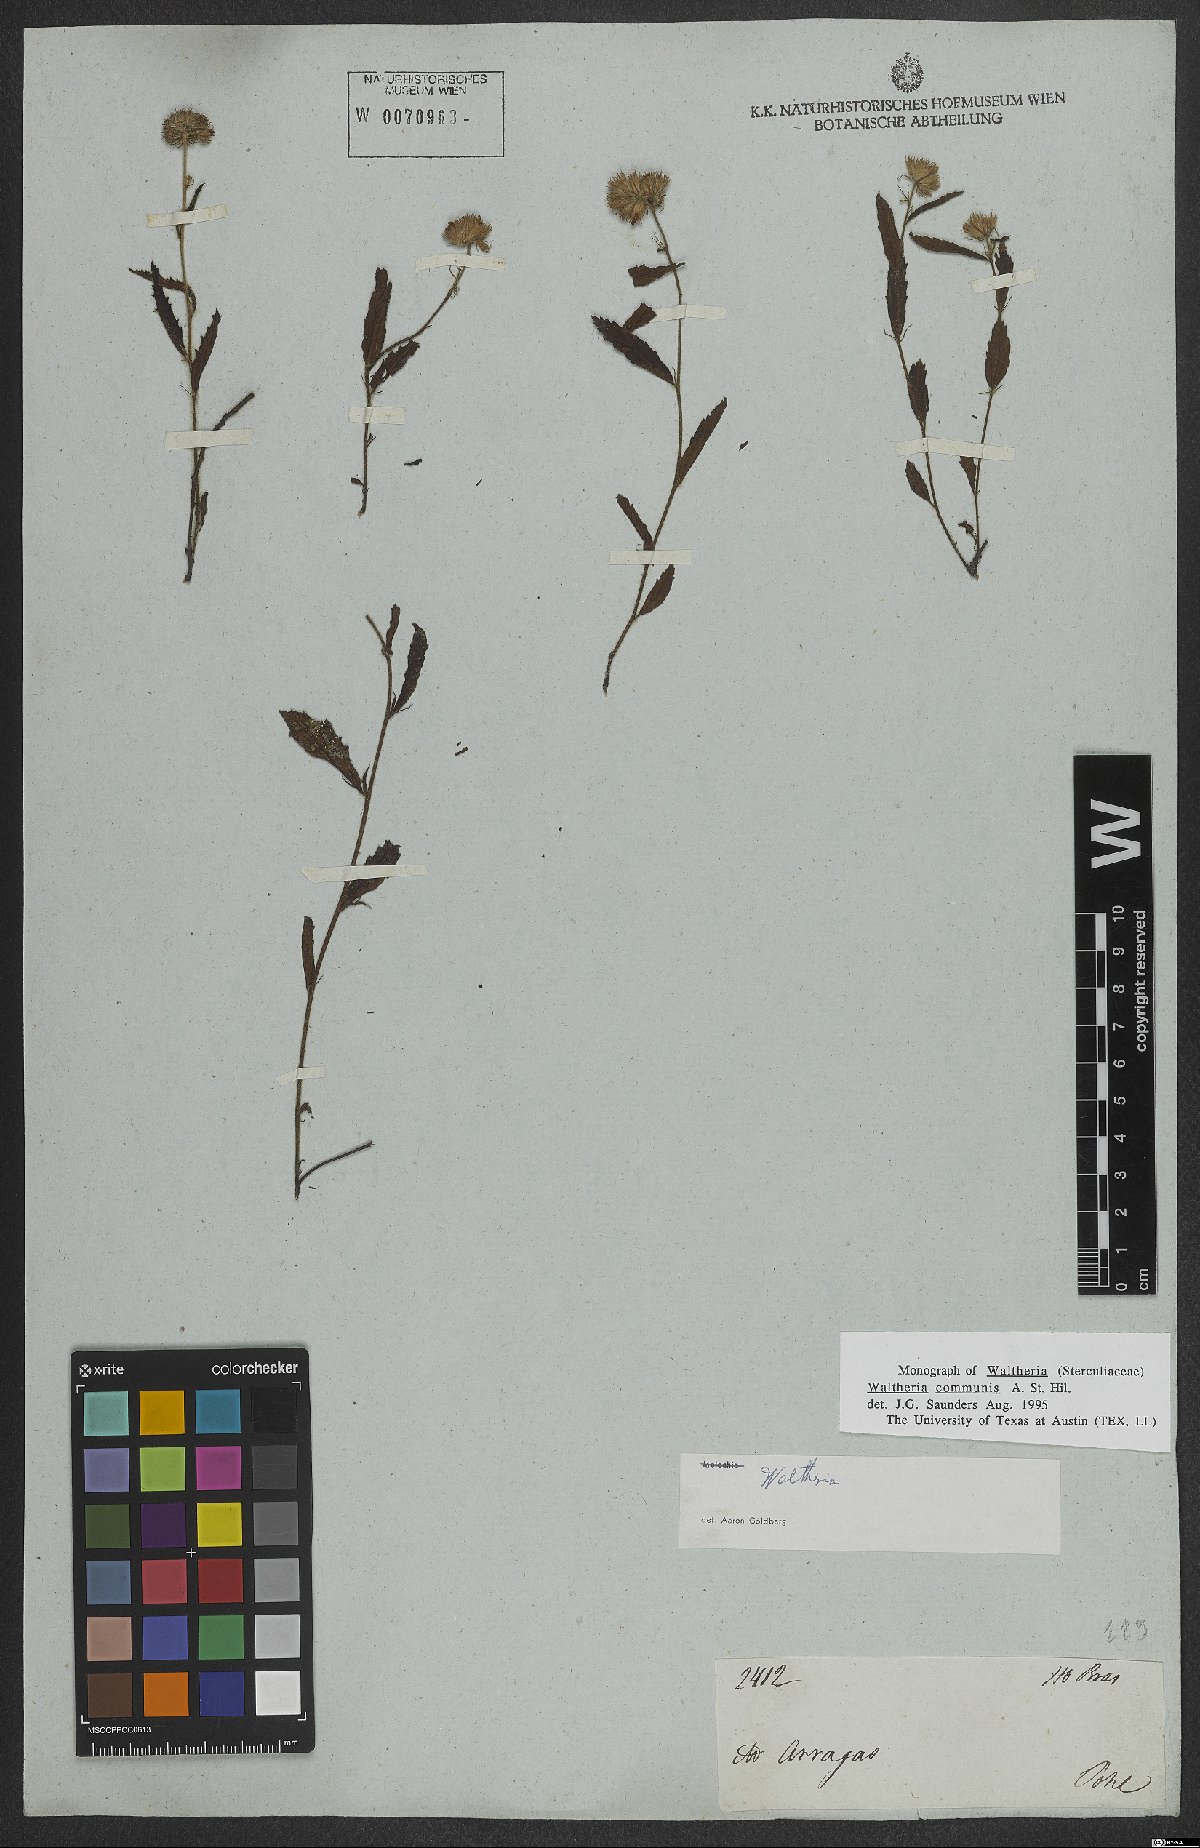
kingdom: Plantae
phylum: Tracheophyta
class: Magnoliopsida
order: Malvales
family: Malvaceae
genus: Waltheria
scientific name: Waltheria communis
